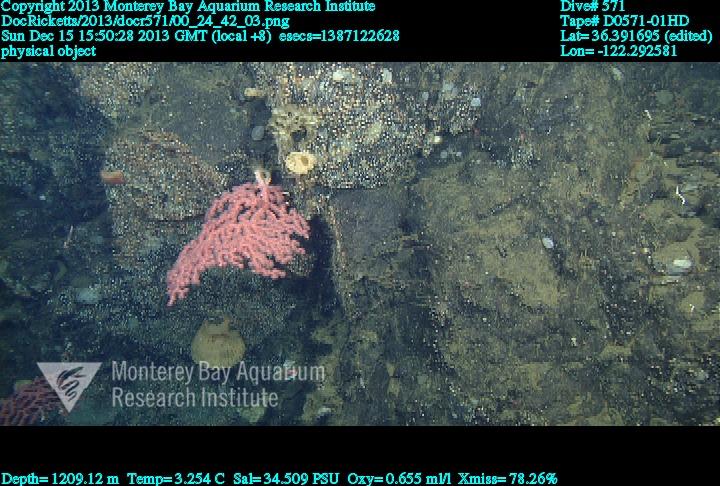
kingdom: Animalia
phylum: Cnidaria
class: Anthozoa
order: Scleralcyonacea
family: Coralliidae
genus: Paragorgia
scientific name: Paragorgia
